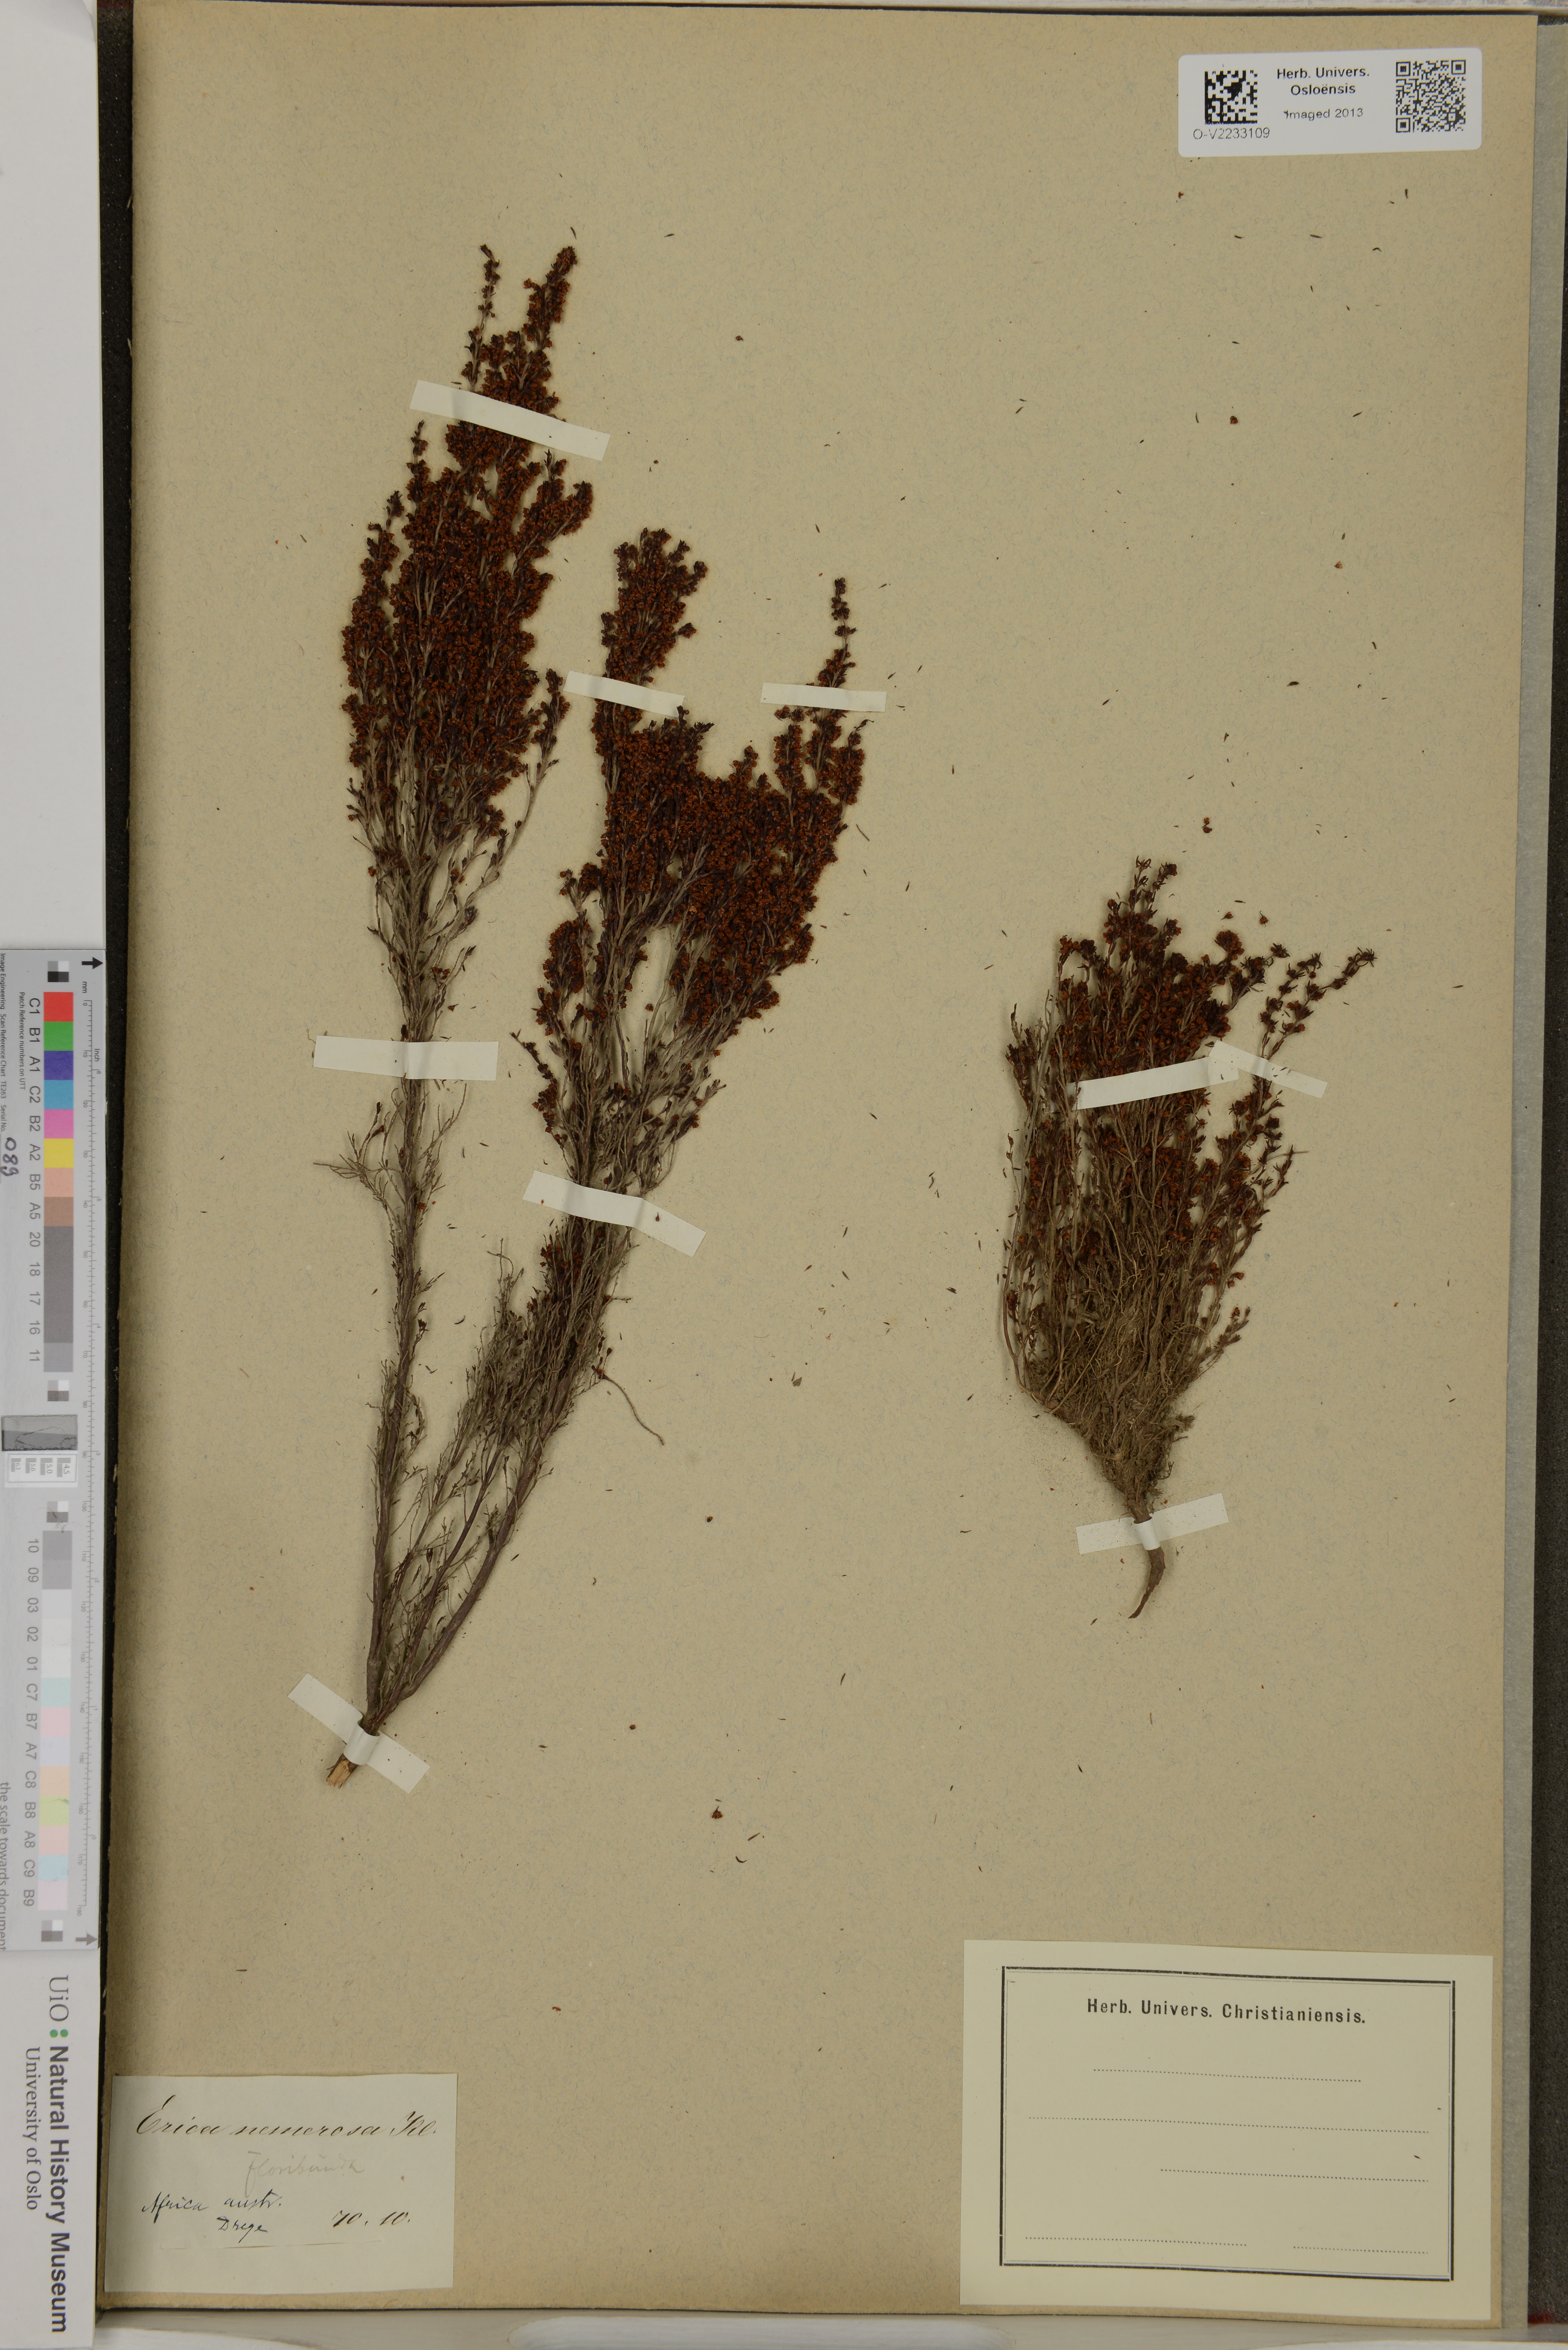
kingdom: Plantae
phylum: Tracheophyta
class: Magnoliopsida
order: Ericales
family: Ericaceae
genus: Erica
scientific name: Erica nemorosa
